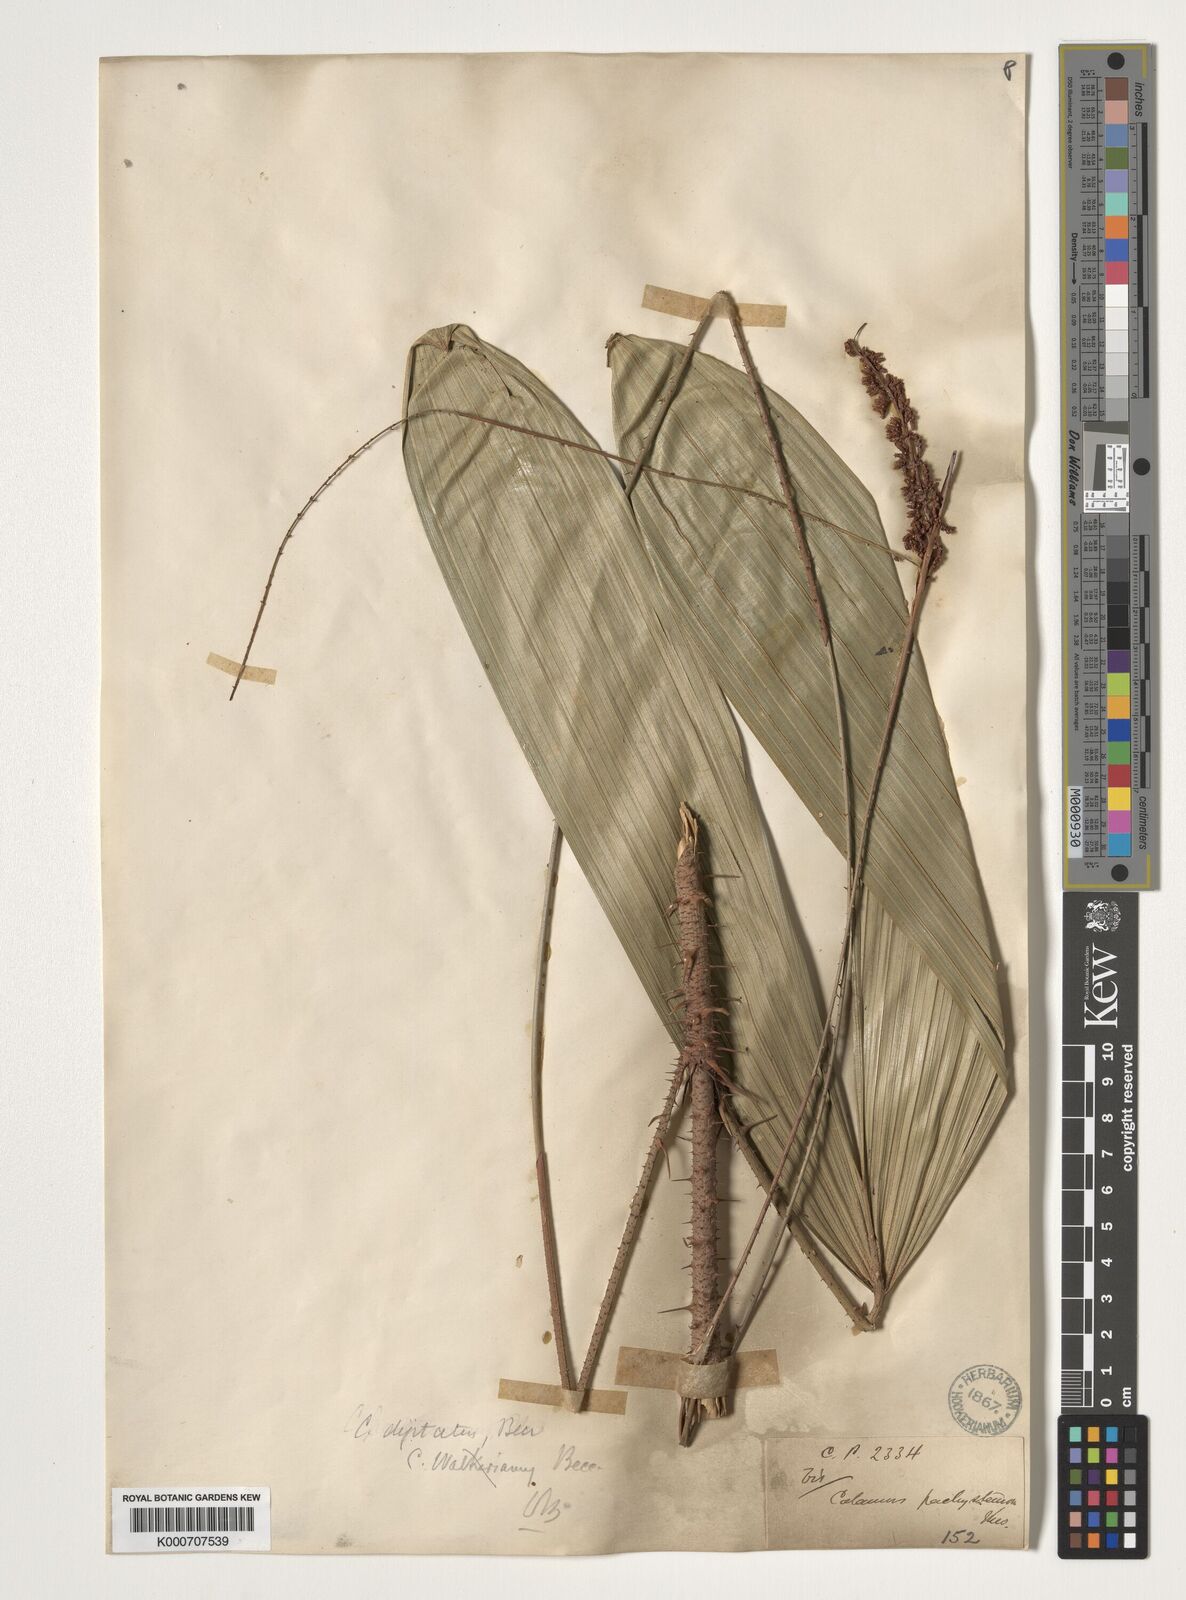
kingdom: Plantae
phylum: Tracheophyta
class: Liliopsida
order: Arecales
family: Arecaceae
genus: Calamus
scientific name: Calamus pachystemonus
